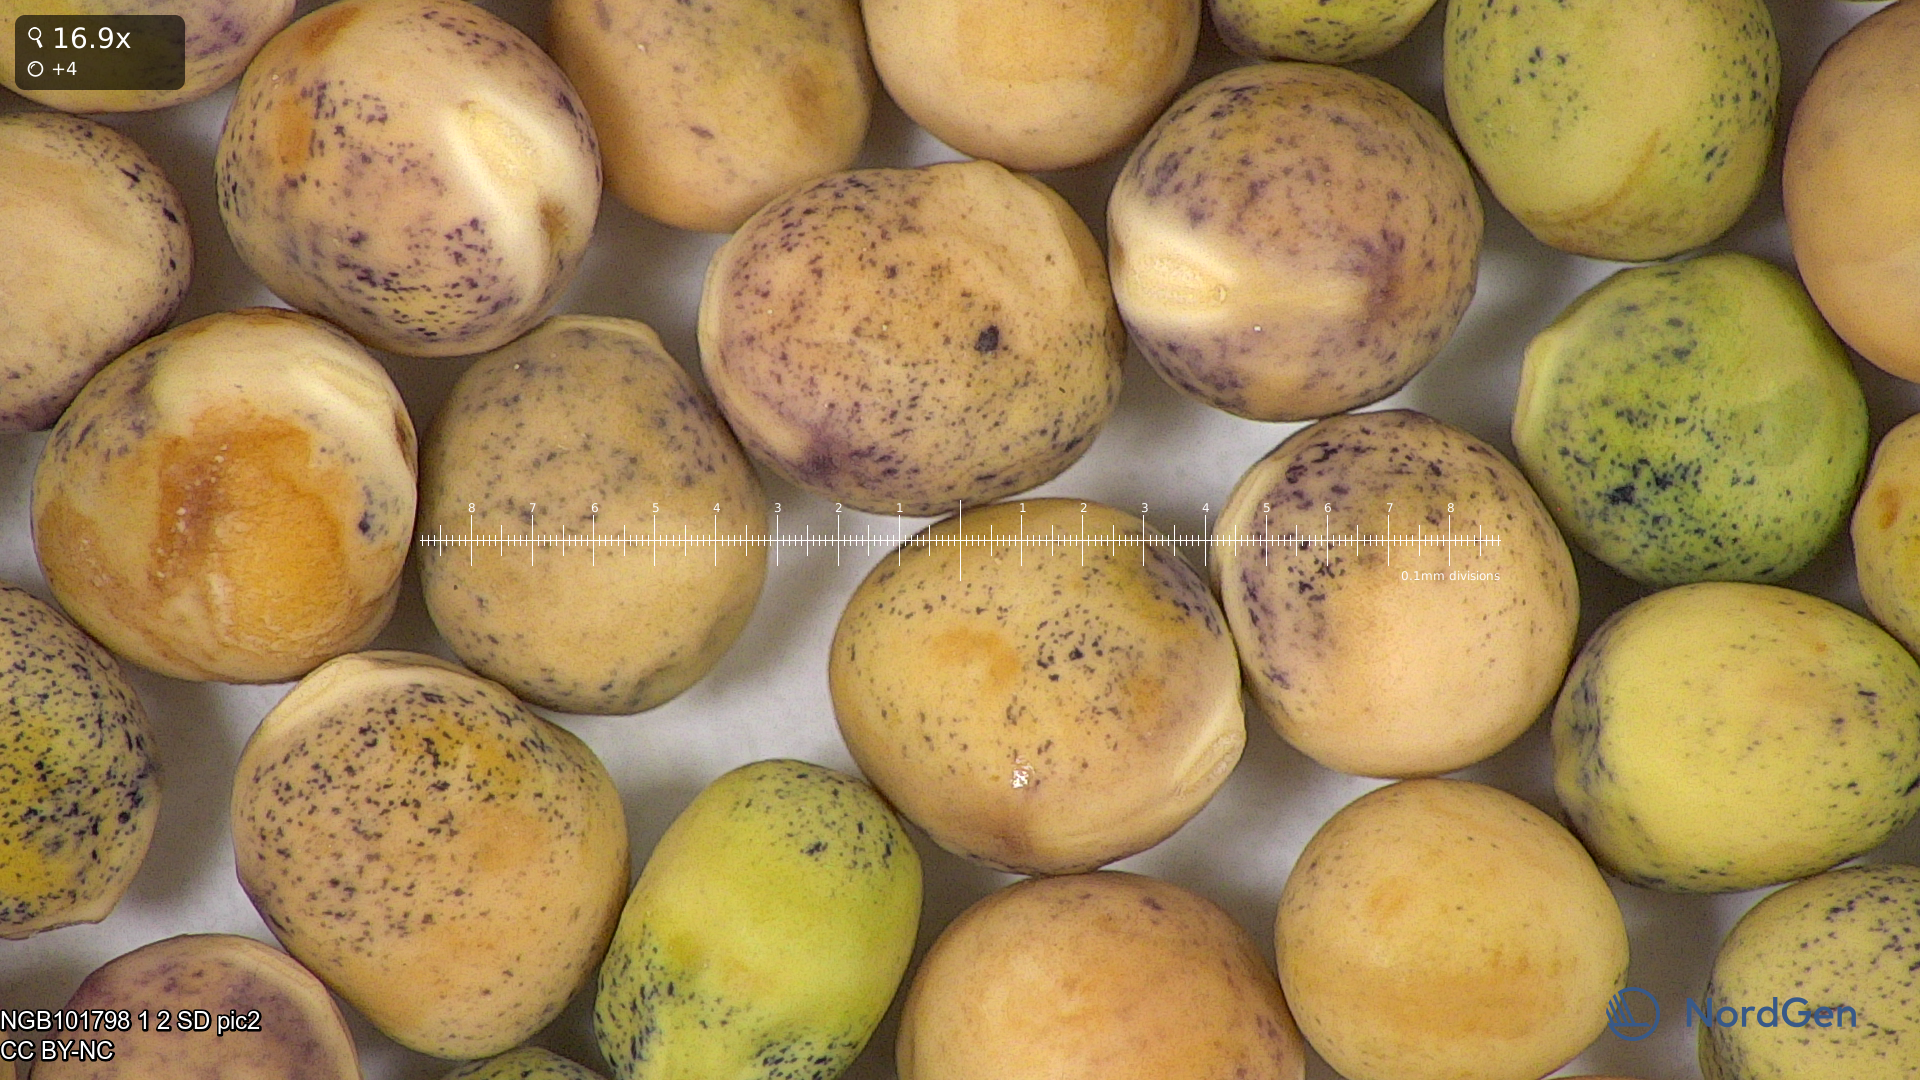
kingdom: Plantae
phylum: Tracheophyta
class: Magnoliopsida
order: Fabales
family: Fabaceae
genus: Lathyrus
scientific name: Lathyrus oleraceus
